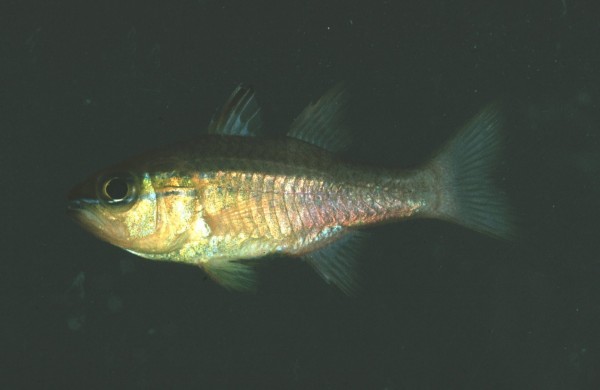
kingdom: Animalia
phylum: Chordata
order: Perciformes
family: Apogonidae
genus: Ostorhinchus
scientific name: Ostorhinchus apogonoides
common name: Goldbelly cardinalfish
